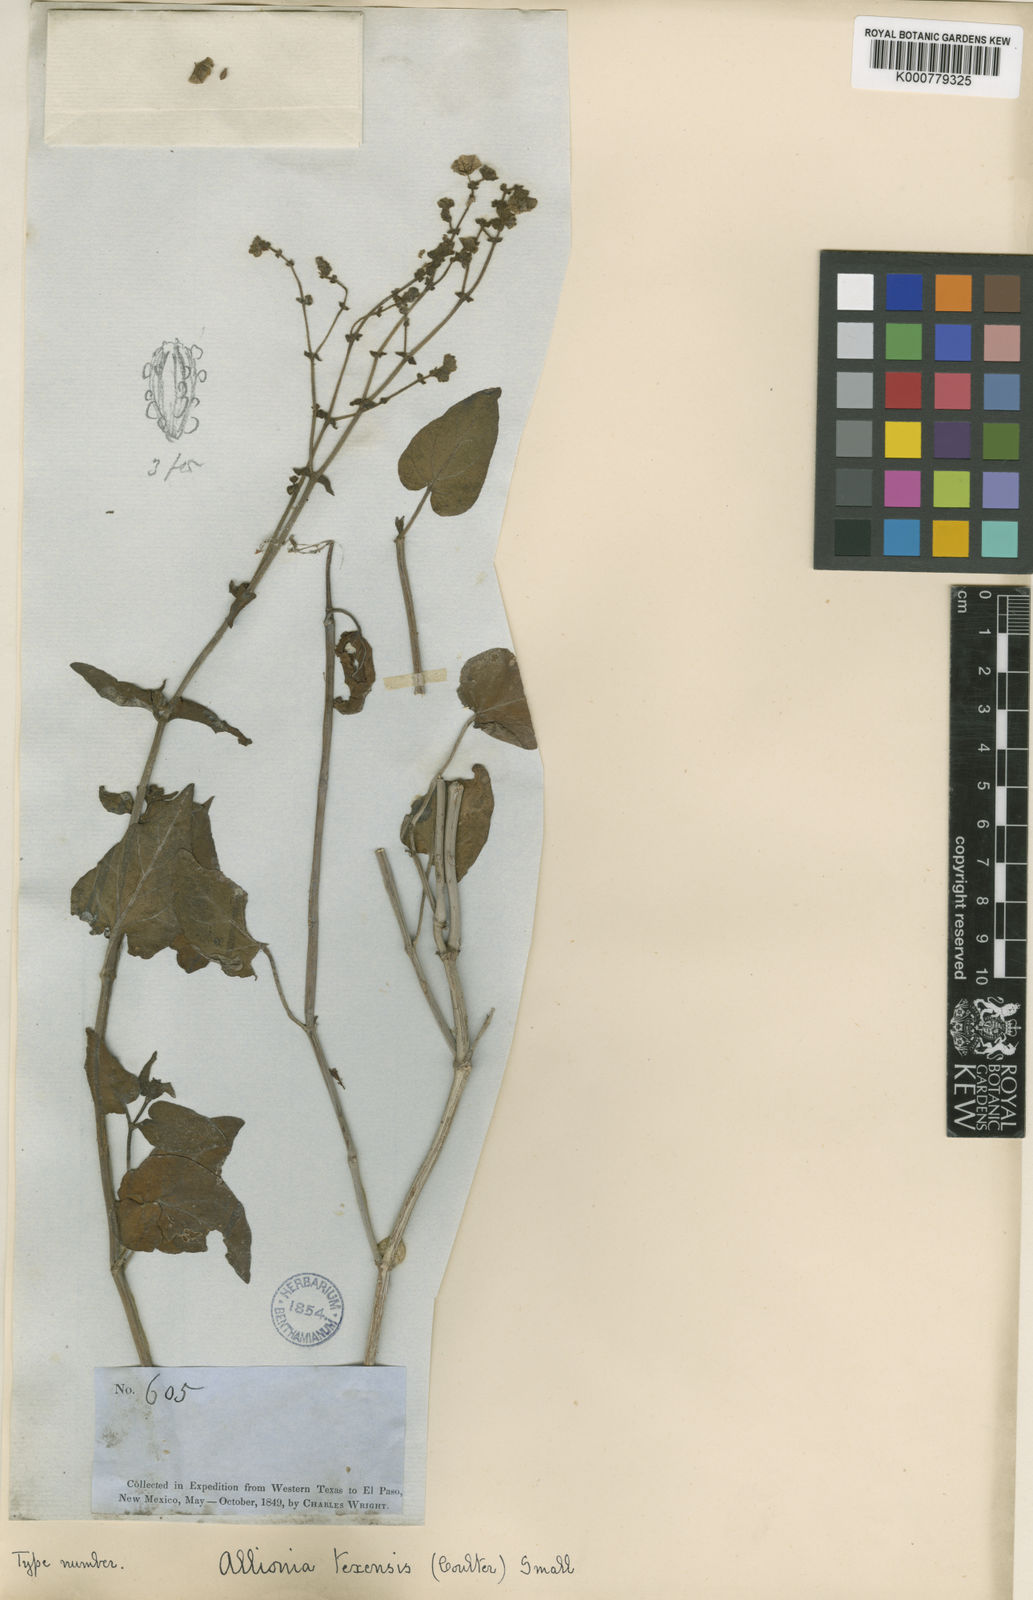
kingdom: Plantae
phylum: Tracheophyta
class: Magnoliopsida
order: Caryophyllales
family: Nyctaginaceae
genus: Mirabilis
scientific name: Mirabilis glabrifolia
